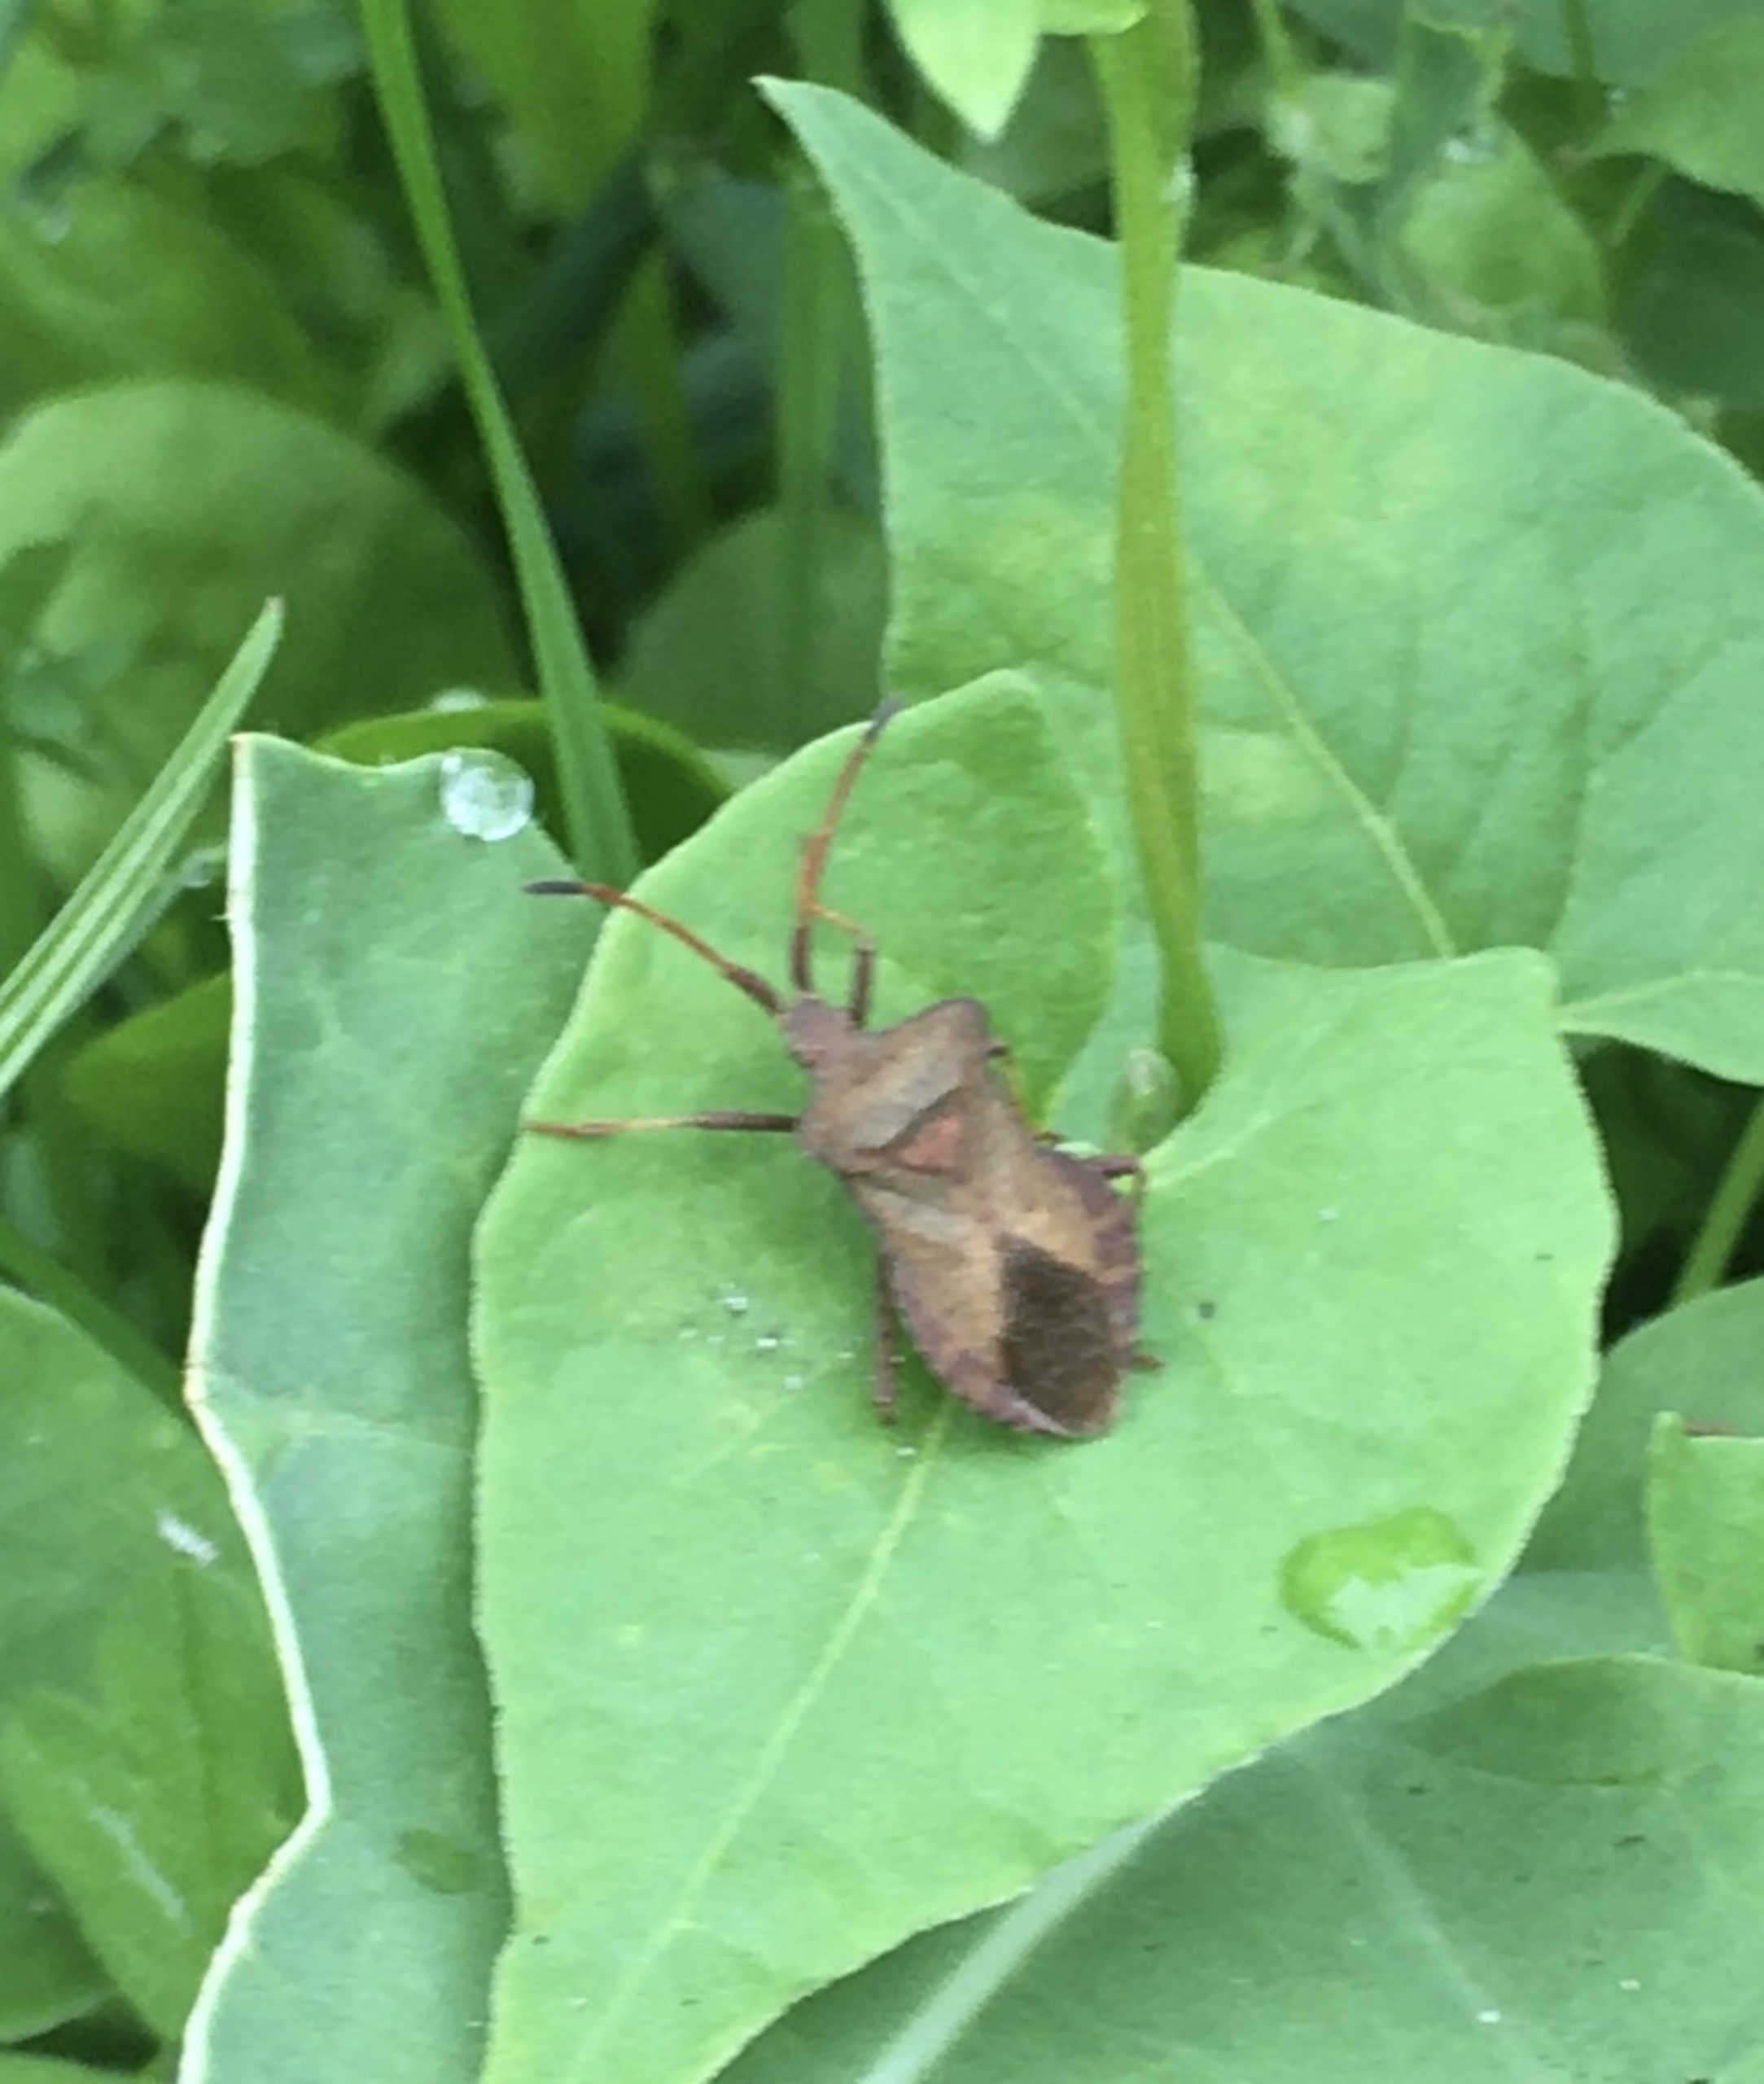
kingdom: Animalia
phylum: Arthropoda
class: Insecta
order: Hemiptera
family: Coreidae
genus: Coreus
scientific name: Coreus marginatus
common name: Skræppetæge
